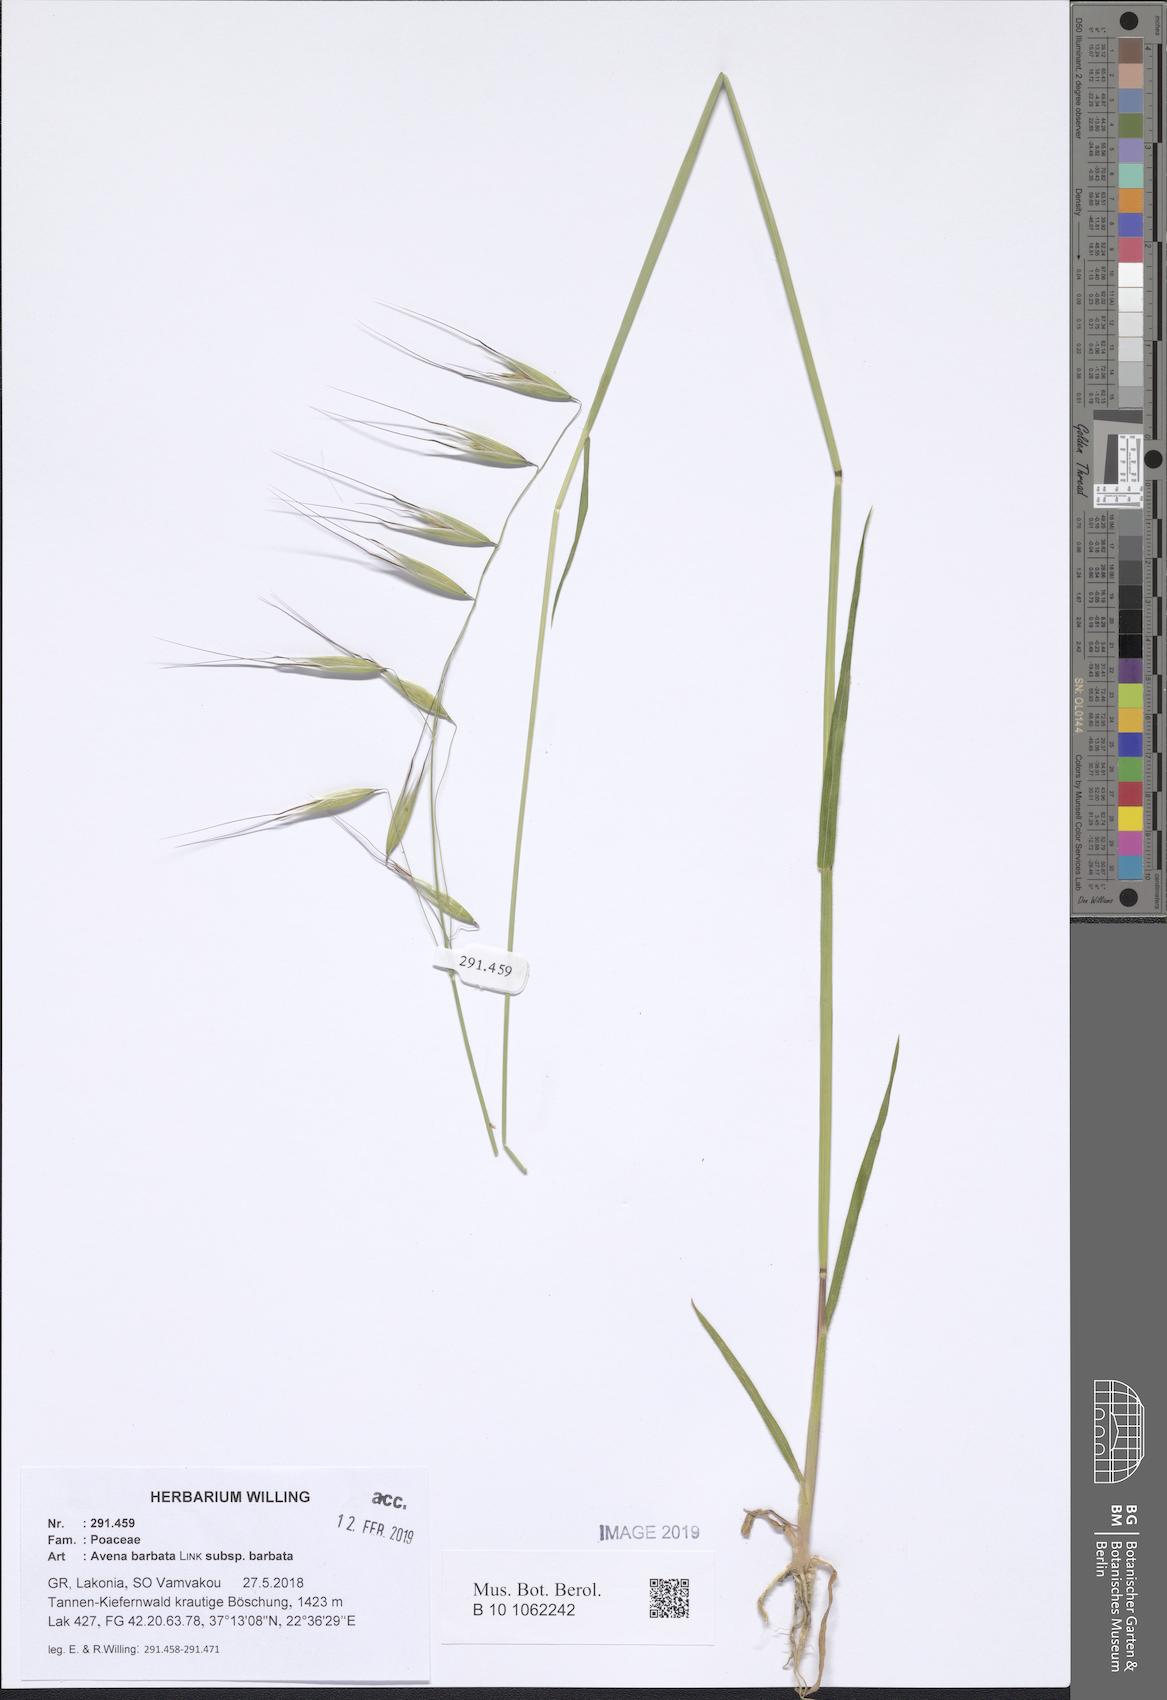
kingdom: Plantae
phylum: Tracheophyta
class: Liliopsida
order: Poales
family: Poaceae
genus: Avena
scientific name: Avena barbata
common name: Slender oat
